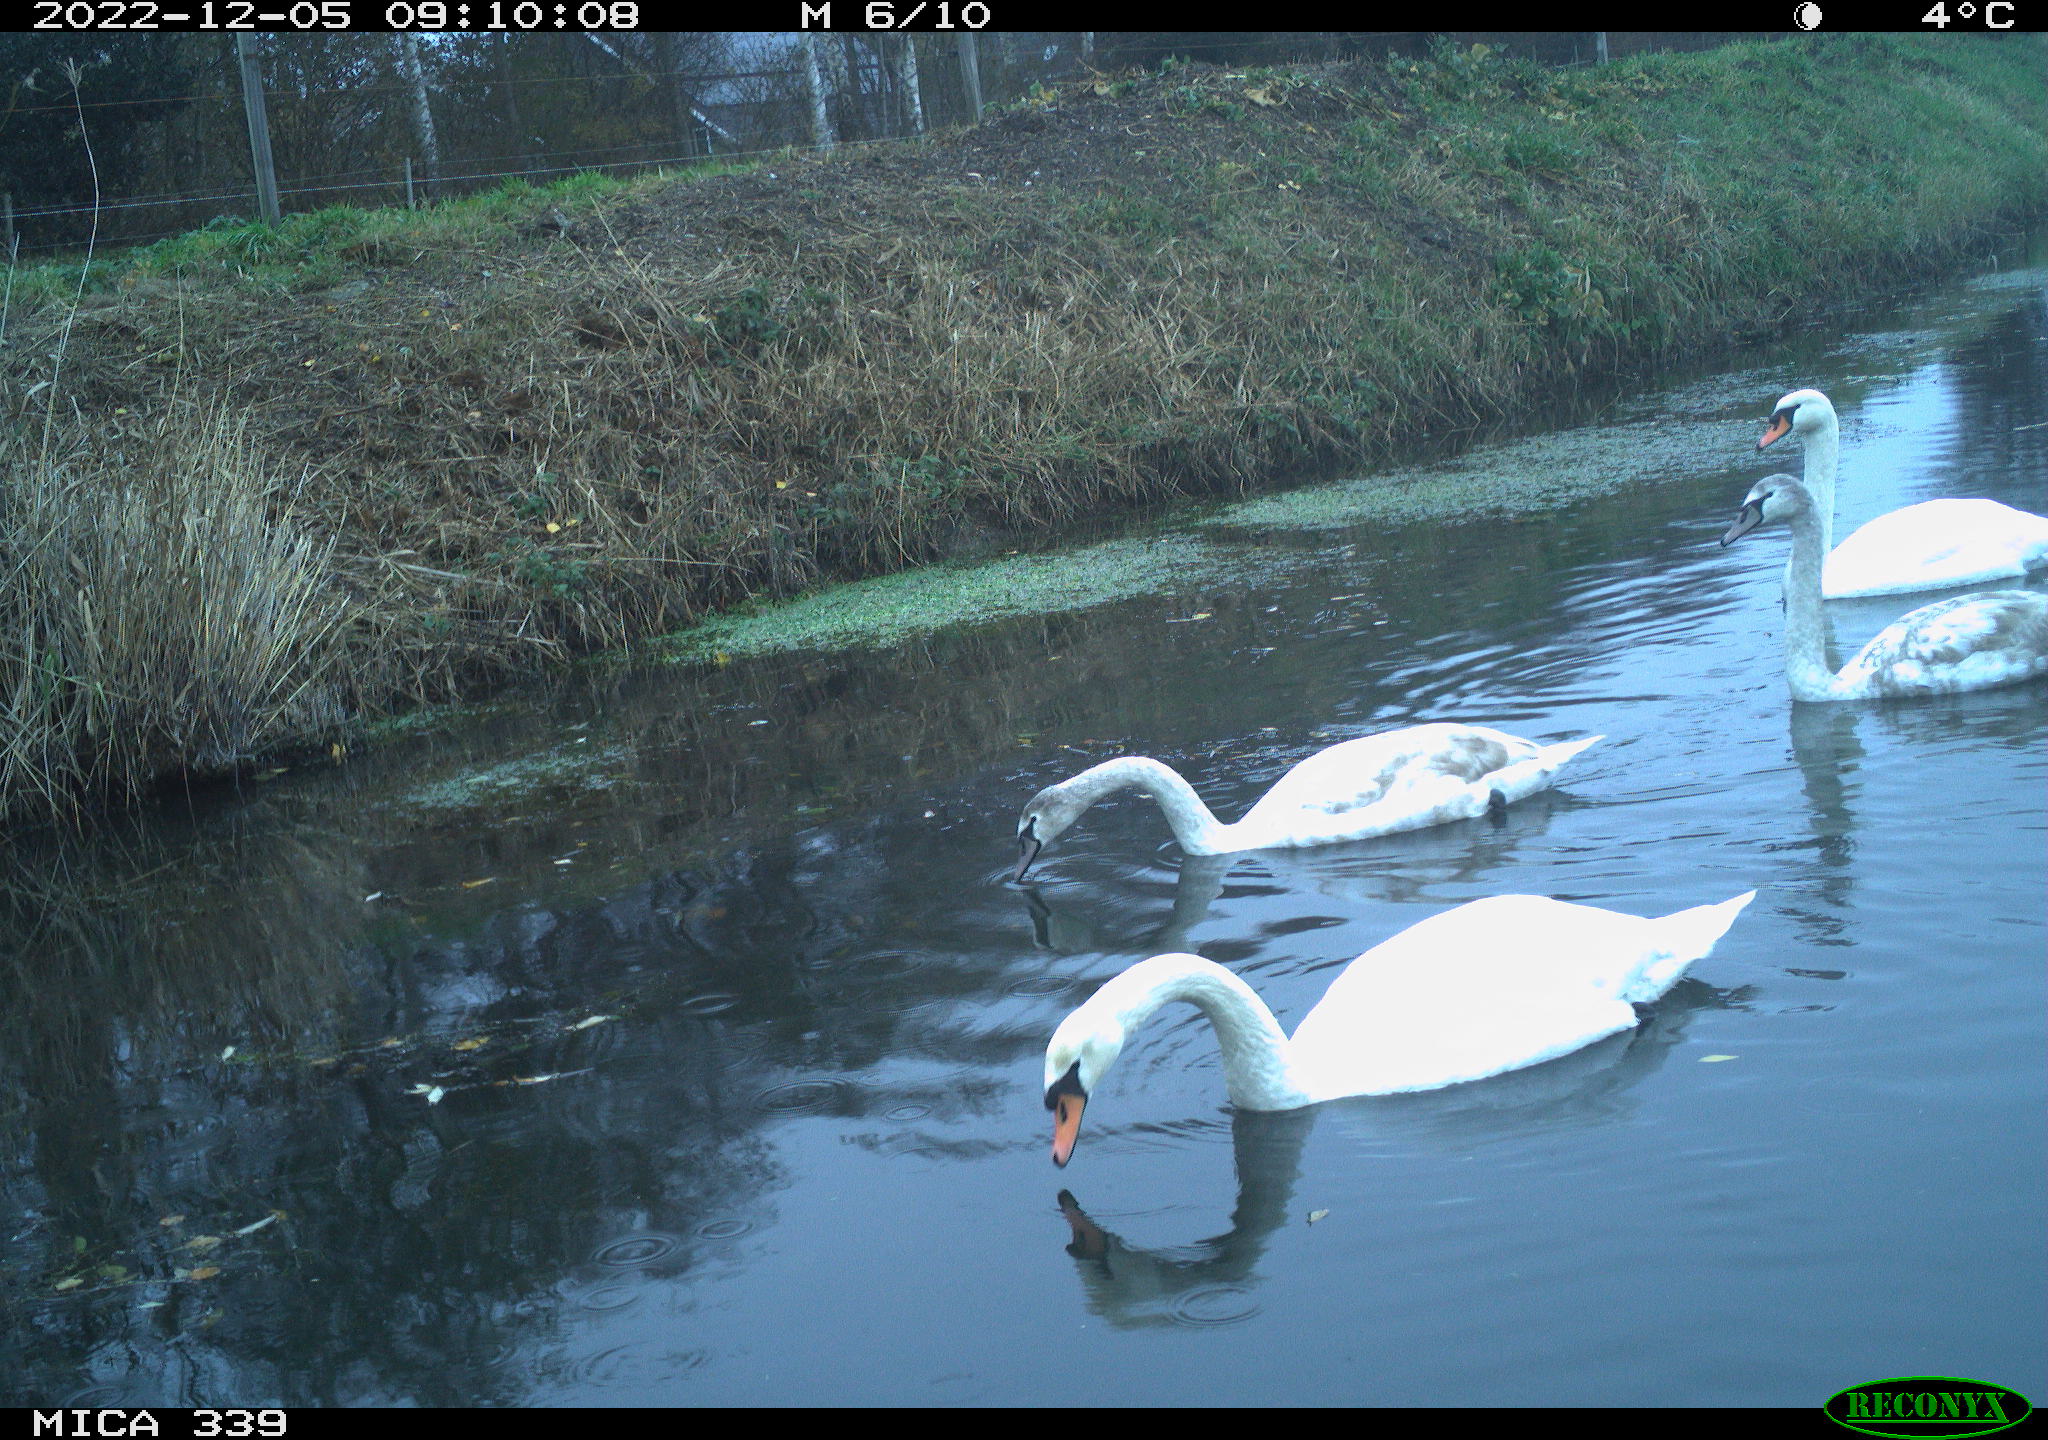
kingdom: Animalia
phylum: Chordata
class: Aves
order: Anseriformes
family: Anatidae
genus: Cygnus
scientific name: Cygnus olor
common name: Mute swan
